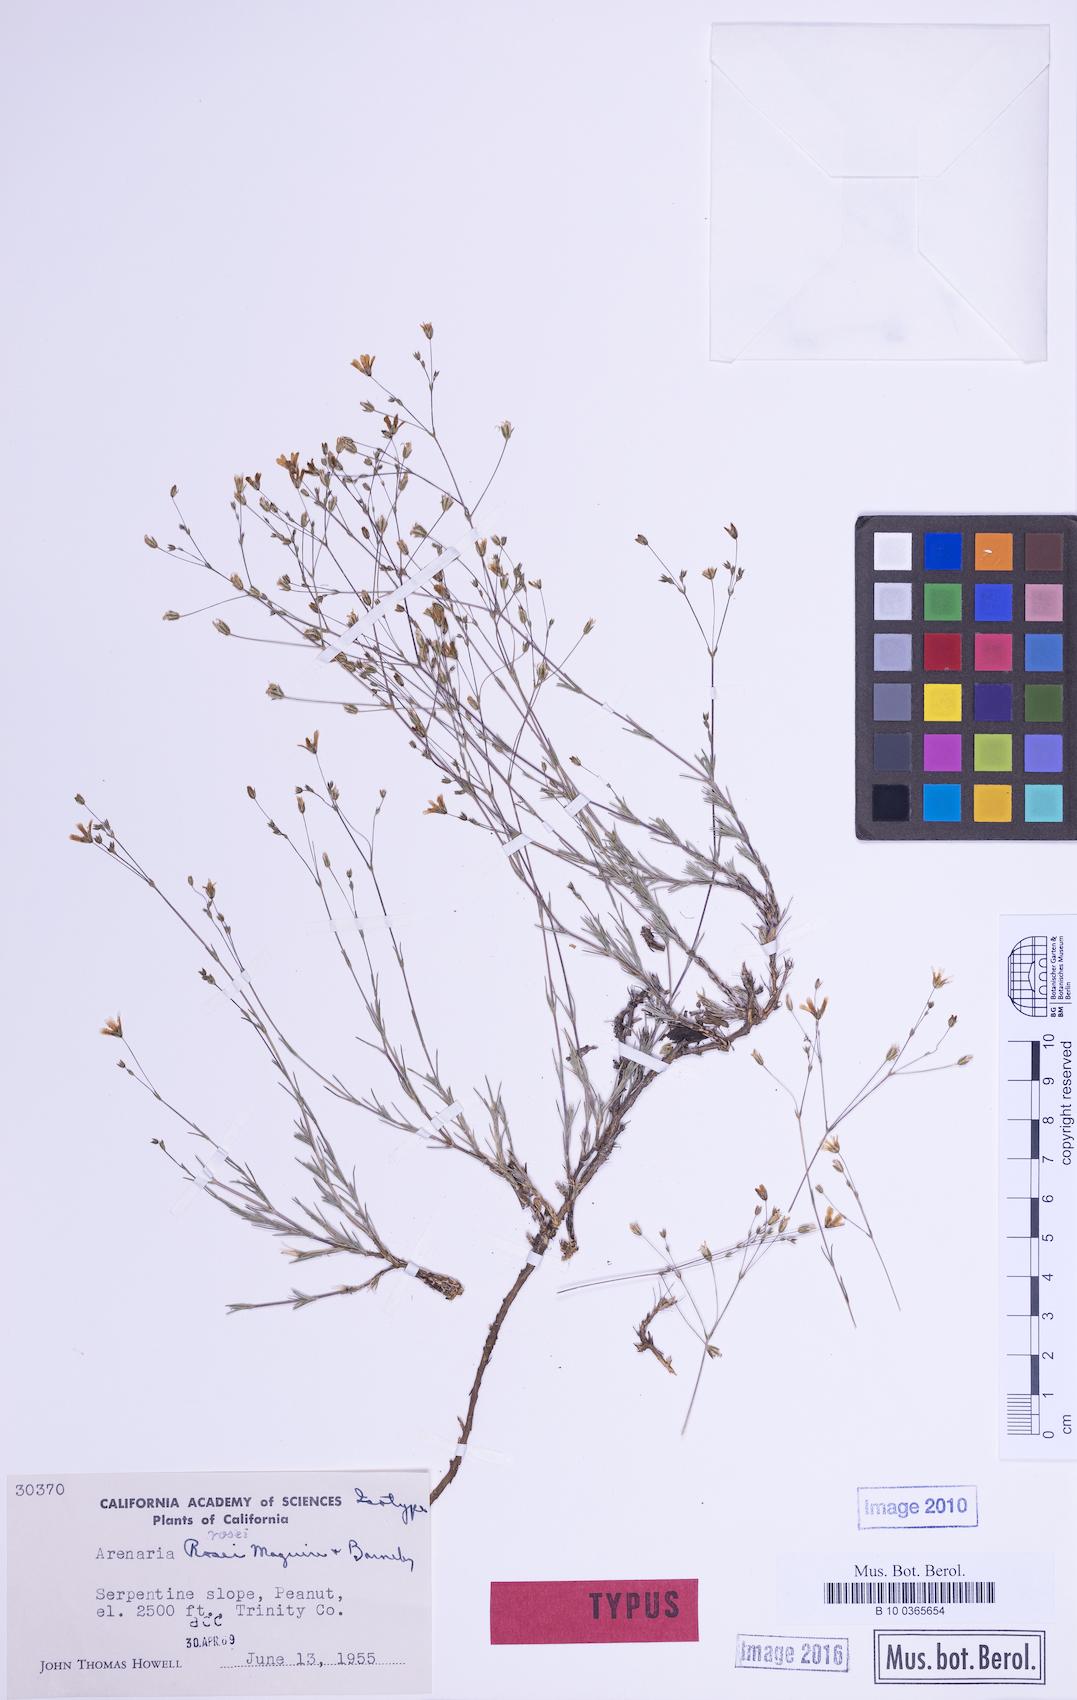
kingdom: Plantae
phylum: Tracheophyta
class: Magnoliopsida
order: Caryophyllales
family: Caryophyllaceae
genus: Sabulina
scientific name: Sabulina rosei
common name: Ross' sandwort
